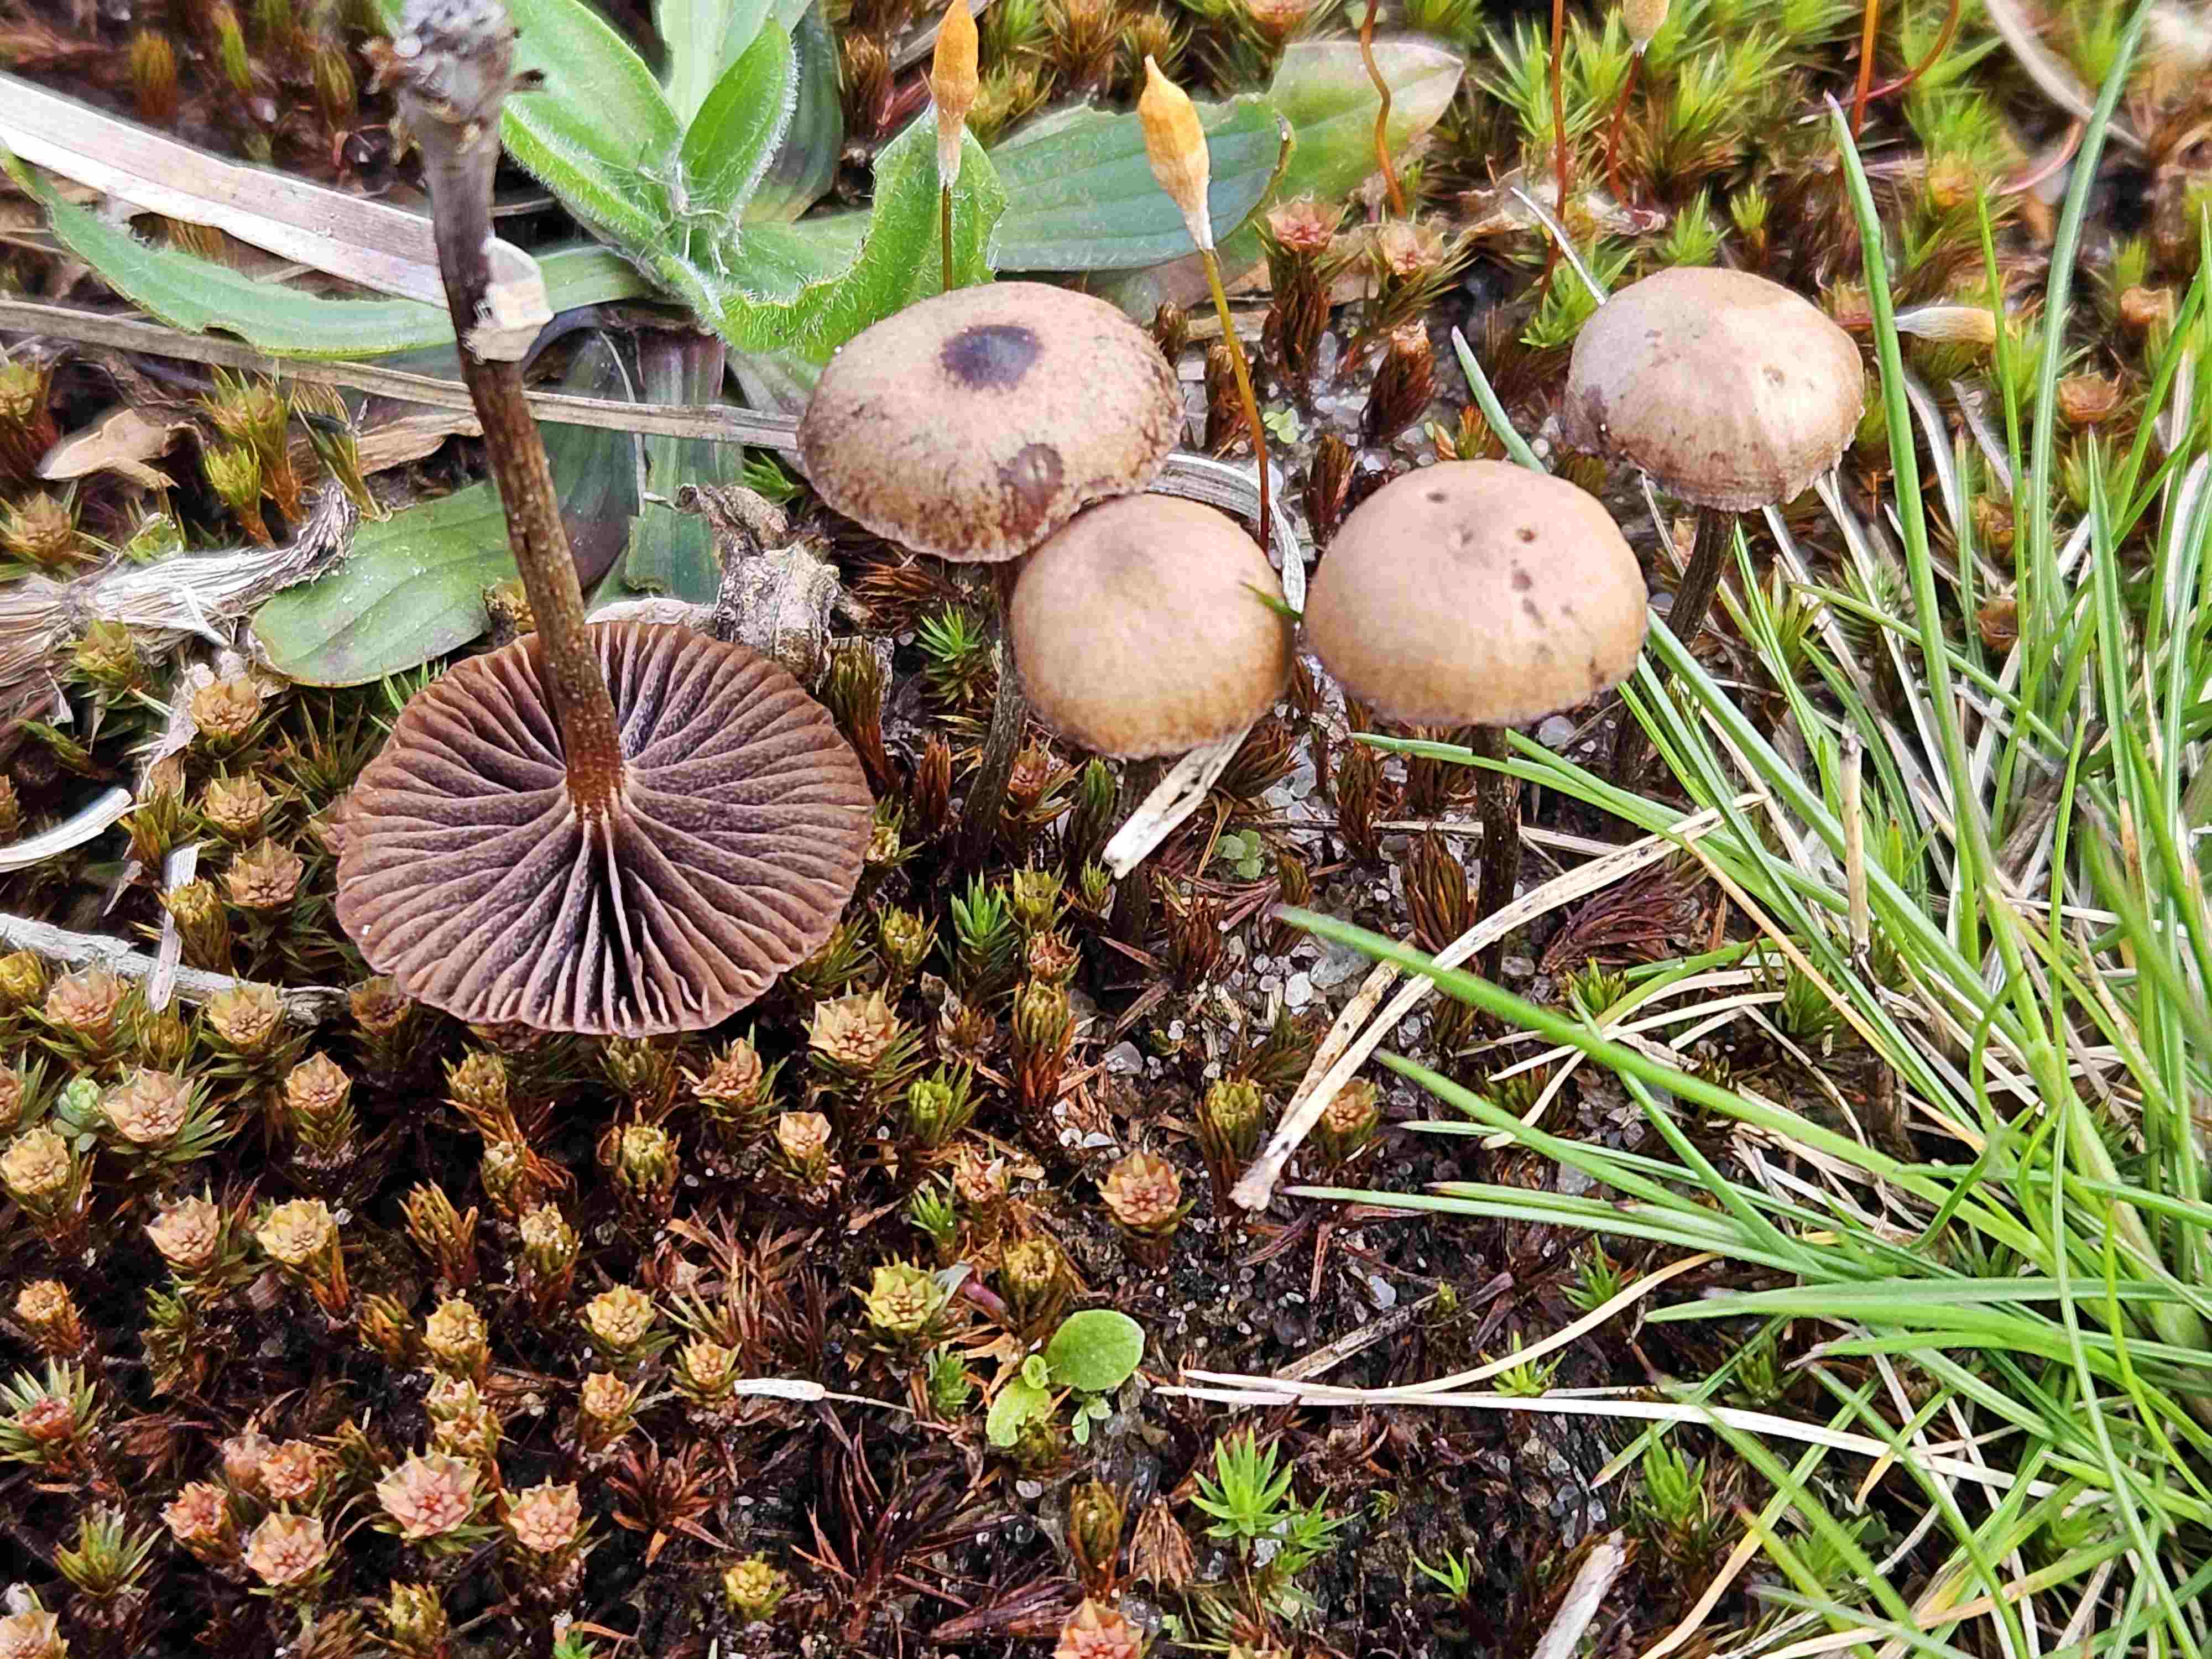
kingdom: Fungi
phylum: Basidiomycota
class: Agaricomycetes
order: Agaricales
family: Strophariaceae
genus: Deconica
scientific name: Deconica montana
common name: rødbrun stråhat
